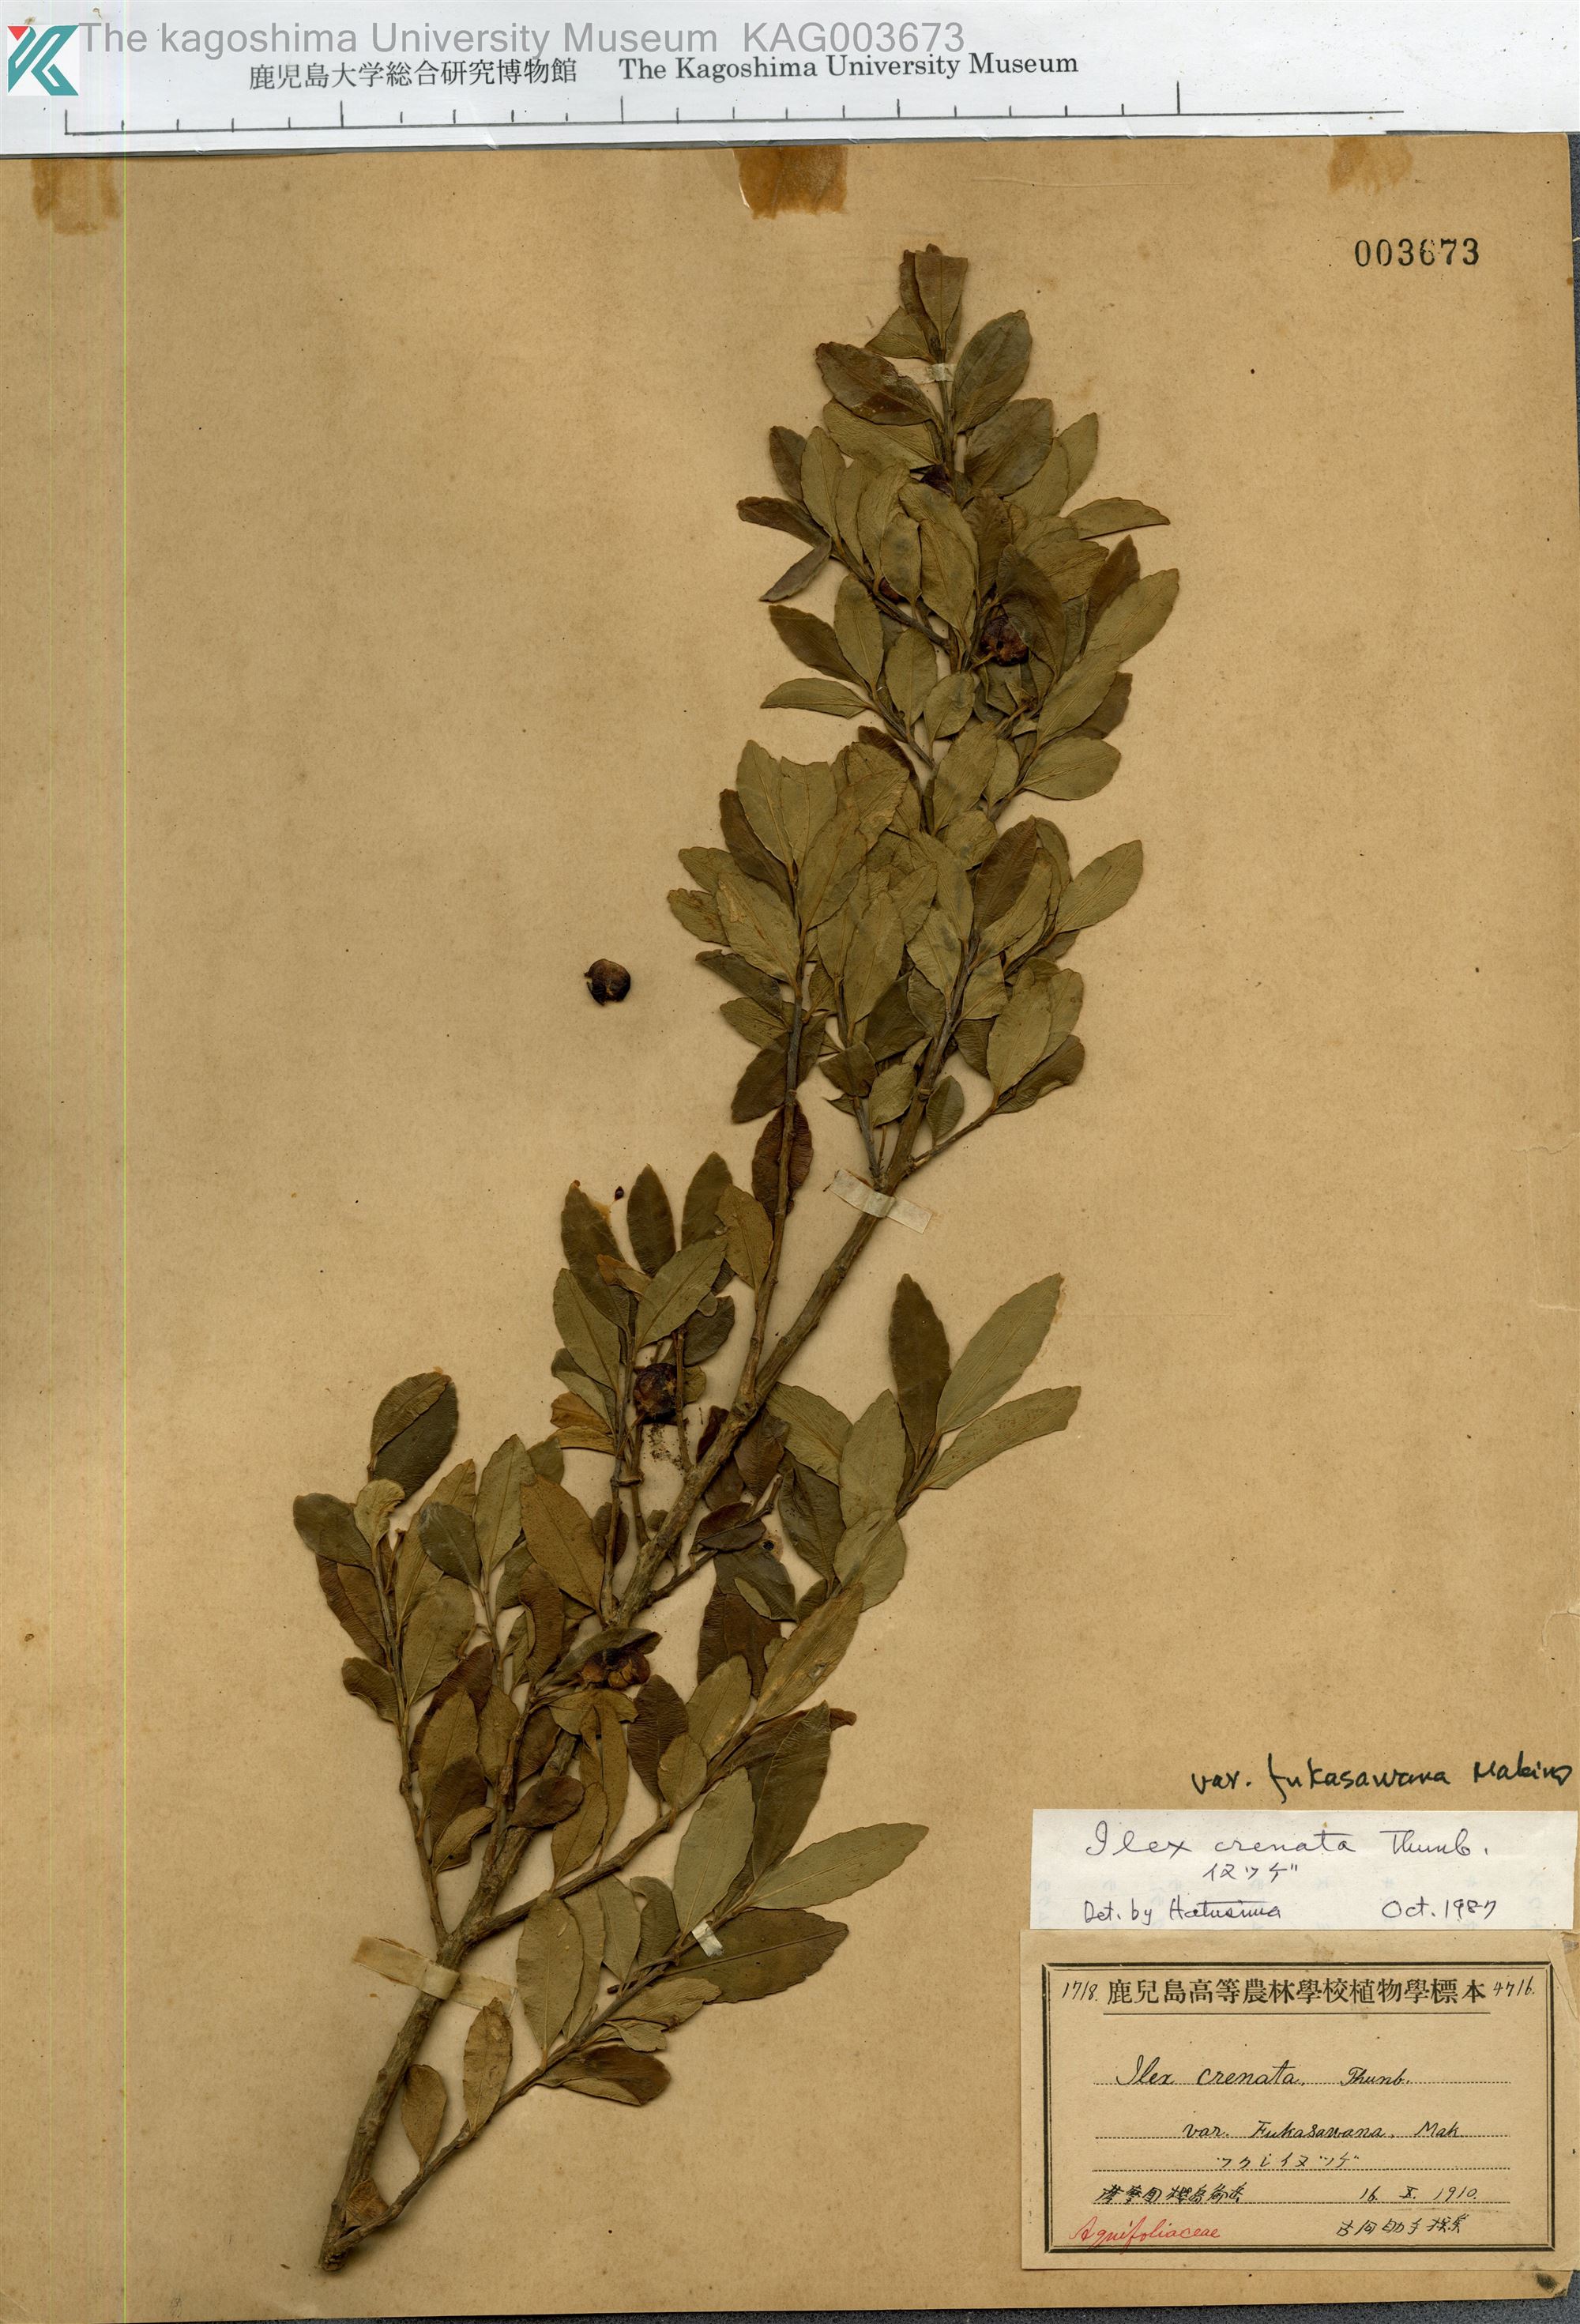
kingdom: Plantae
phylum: Tracheophyta
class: Magnoliopsida
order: Aquifoliales
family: Aquifoliaceae
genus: Ilex
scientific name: Ilex crenata
